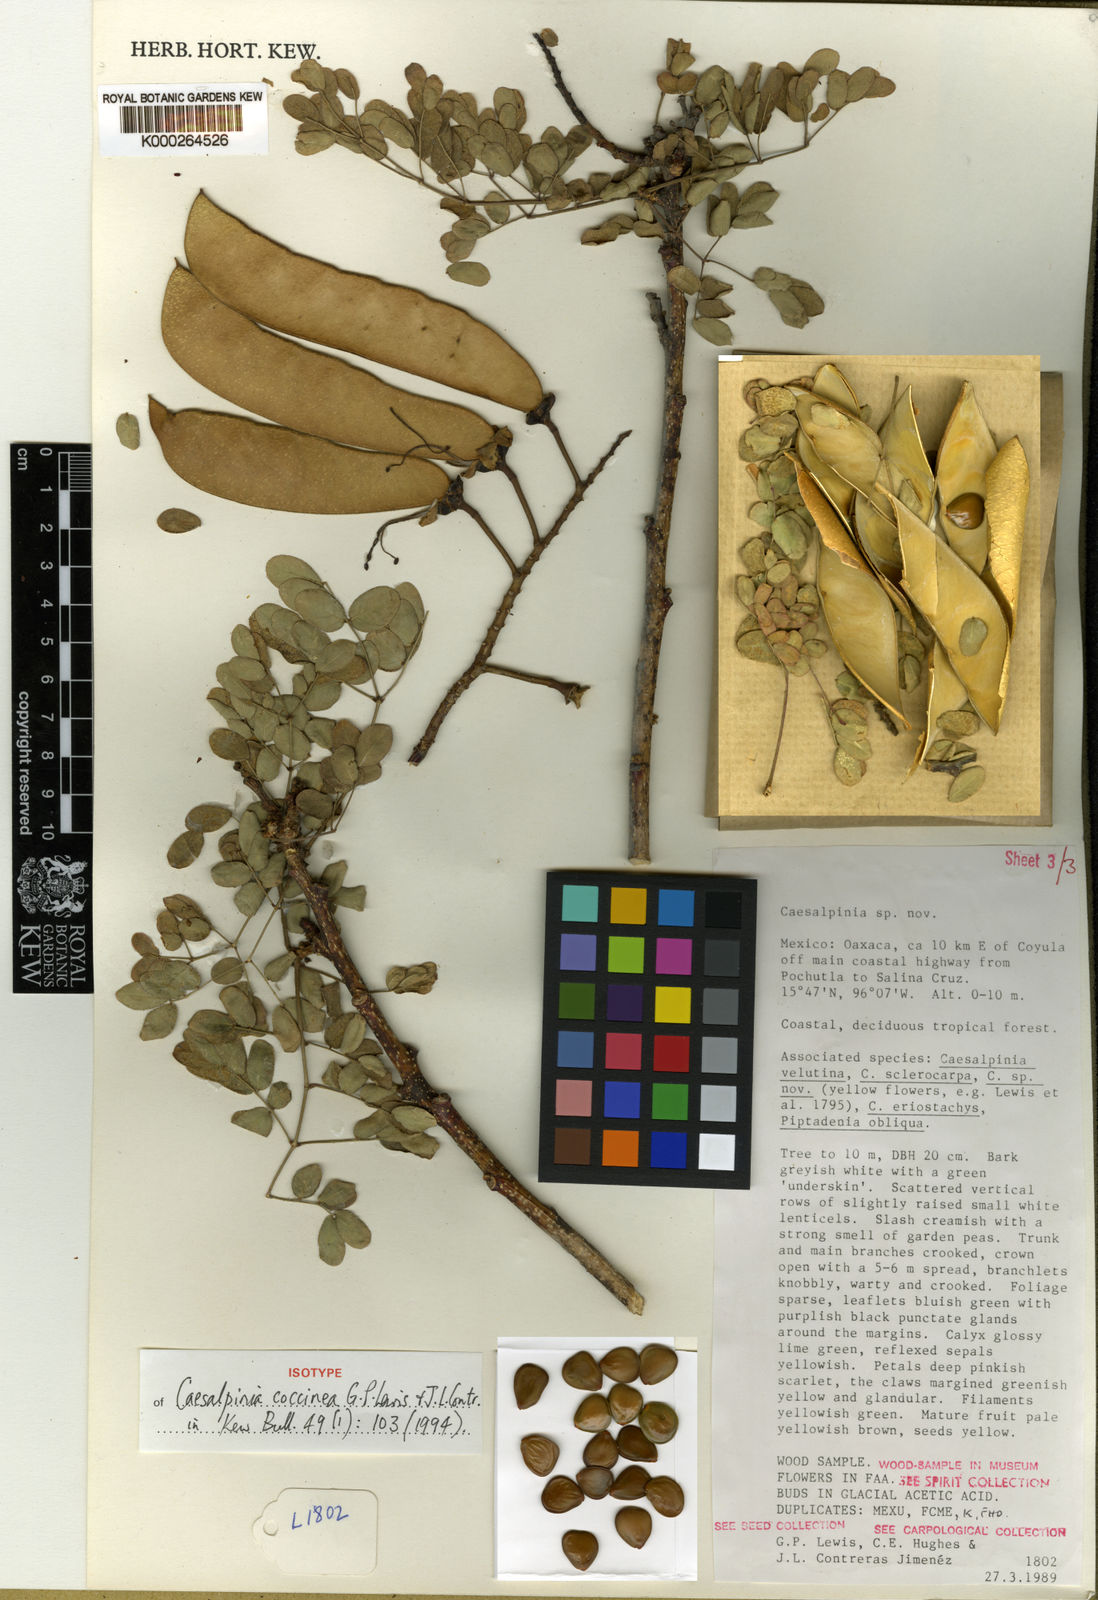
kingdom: Plantae
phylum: Tracheophyta
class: Magnoliopsida
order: Fabales
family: Fabaceae
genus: Erythrostemon
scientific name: Erythrostemon coccineus
